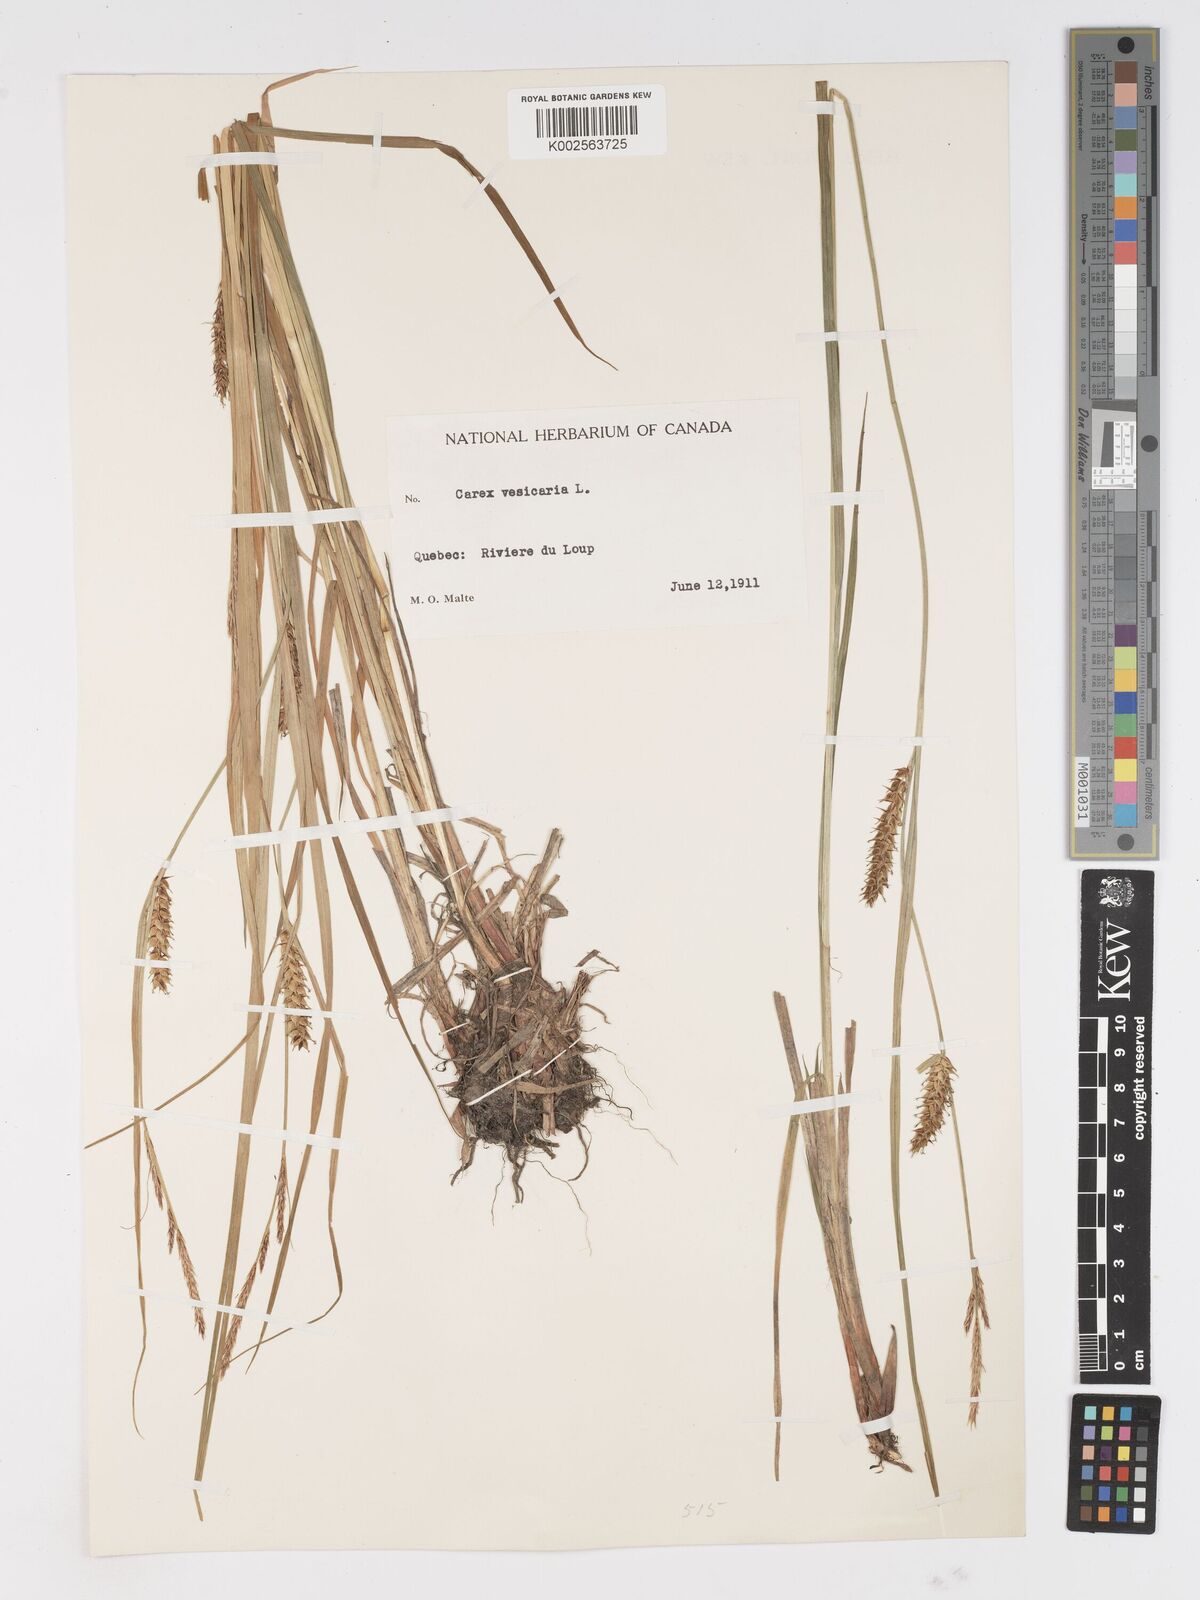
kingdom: Plantae
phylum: Tracheophyta
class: Liliopsida
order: Poales
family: Cyperaceae
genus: Carex
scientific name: Carex vesicaria
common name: Bladder-sedge
